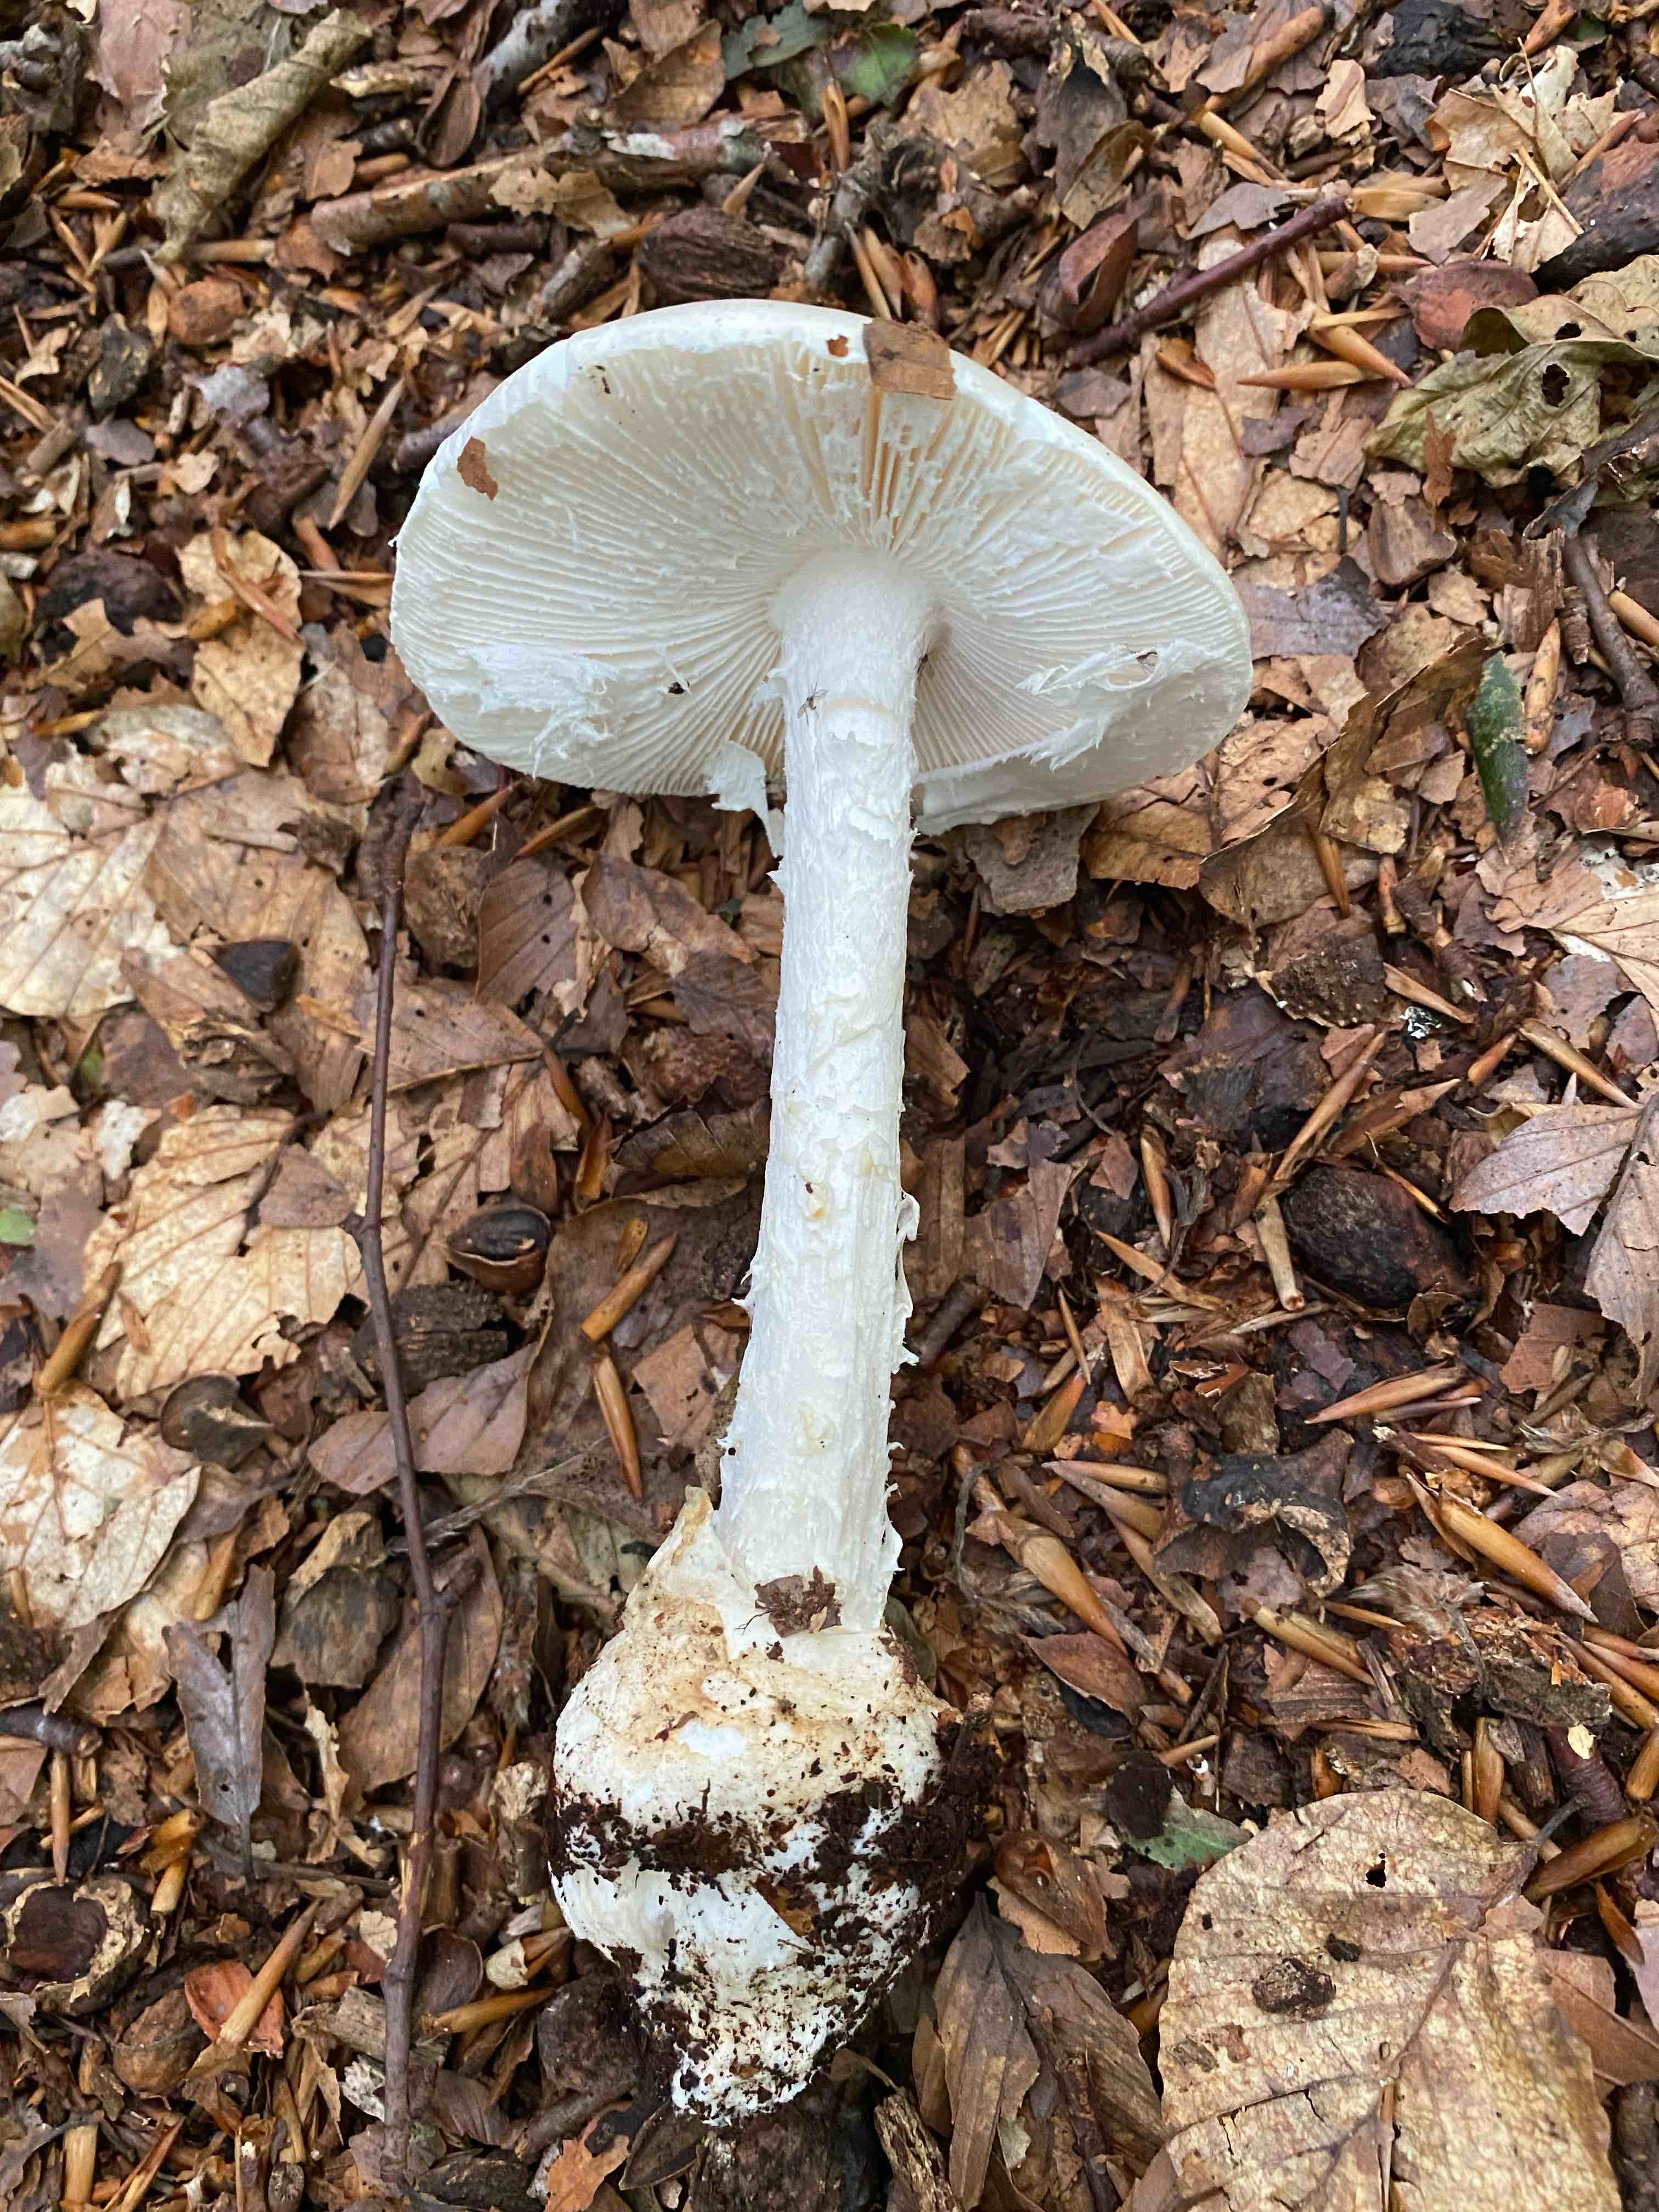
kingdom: Fungi
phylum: Basidiomycota
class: Agaricomycetes
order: Agaricales
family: Amanitaceae
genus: Amanita
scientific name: Amanita virosa
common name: snehvid fluesvamp
